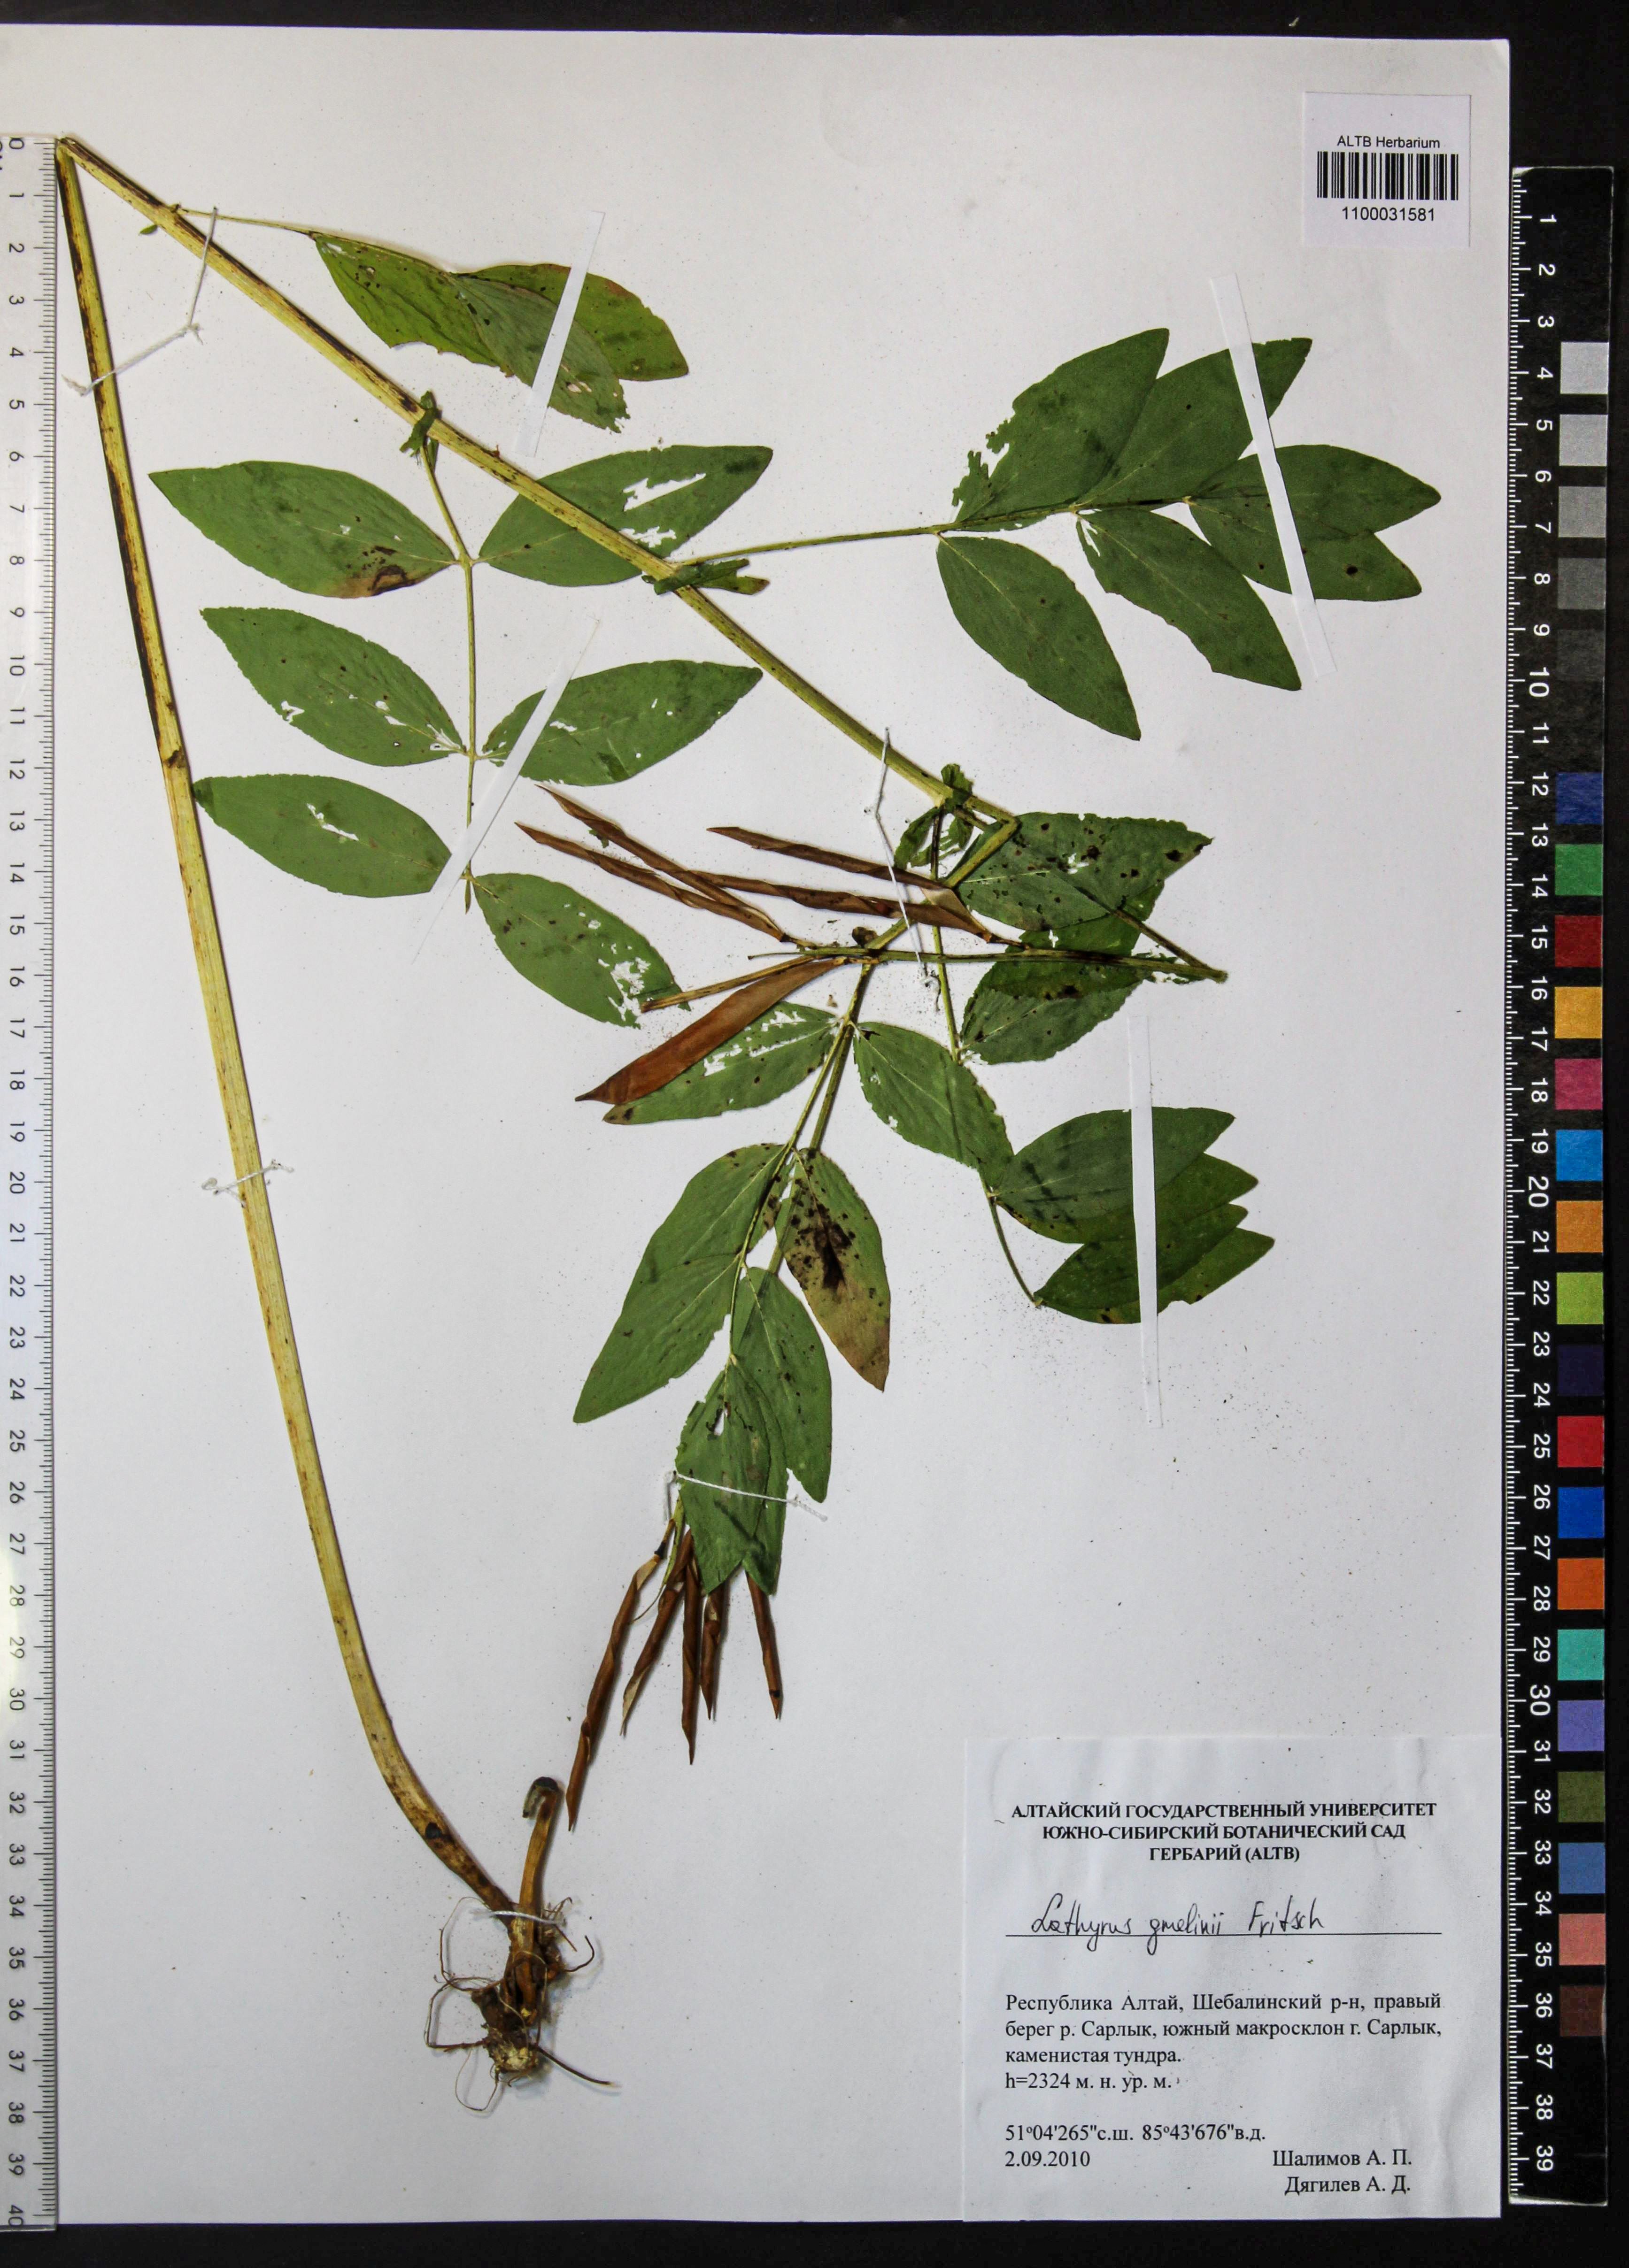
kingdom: Plantae
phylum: Tracheophyta
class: Magnoliopsida
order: Fabales
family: Fabaceae
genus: Lathyrus
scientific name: Lathyrus gmelinii
